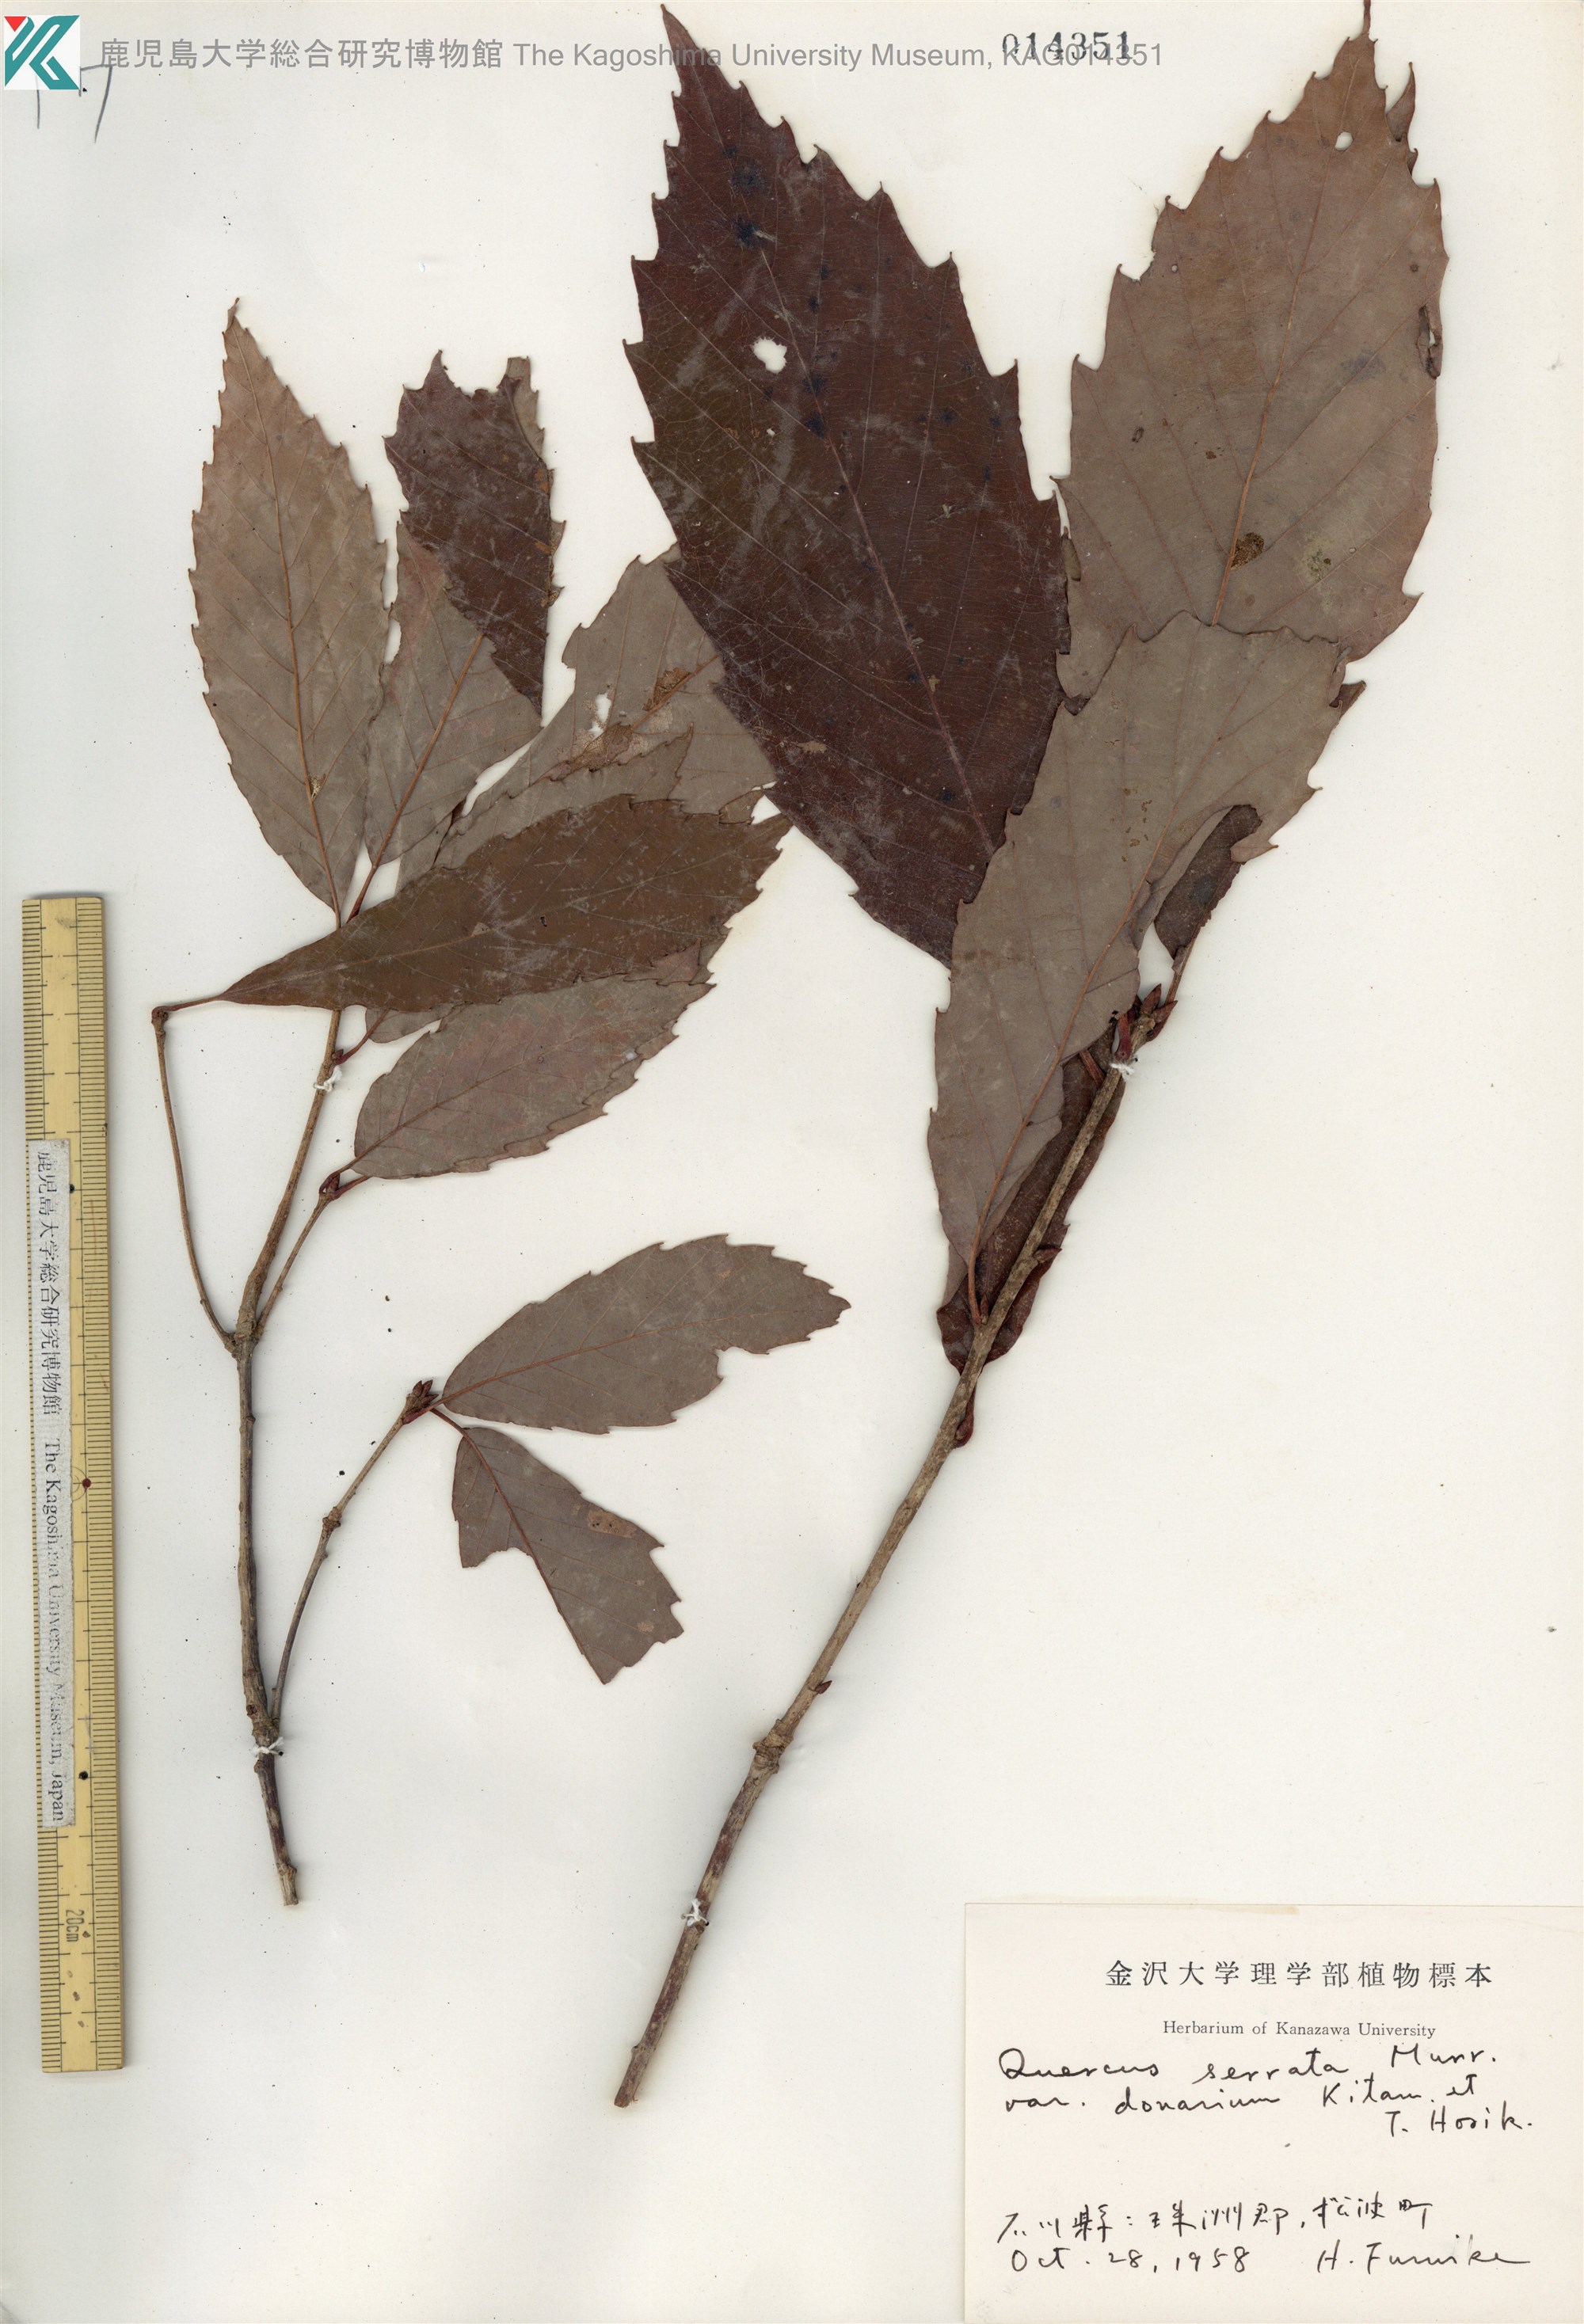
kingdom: Plantae
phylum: Tracheophyta
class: Magnoliopsida
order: Fagales
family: Fagaceae
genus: Quercus
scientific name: Quercus serrata
